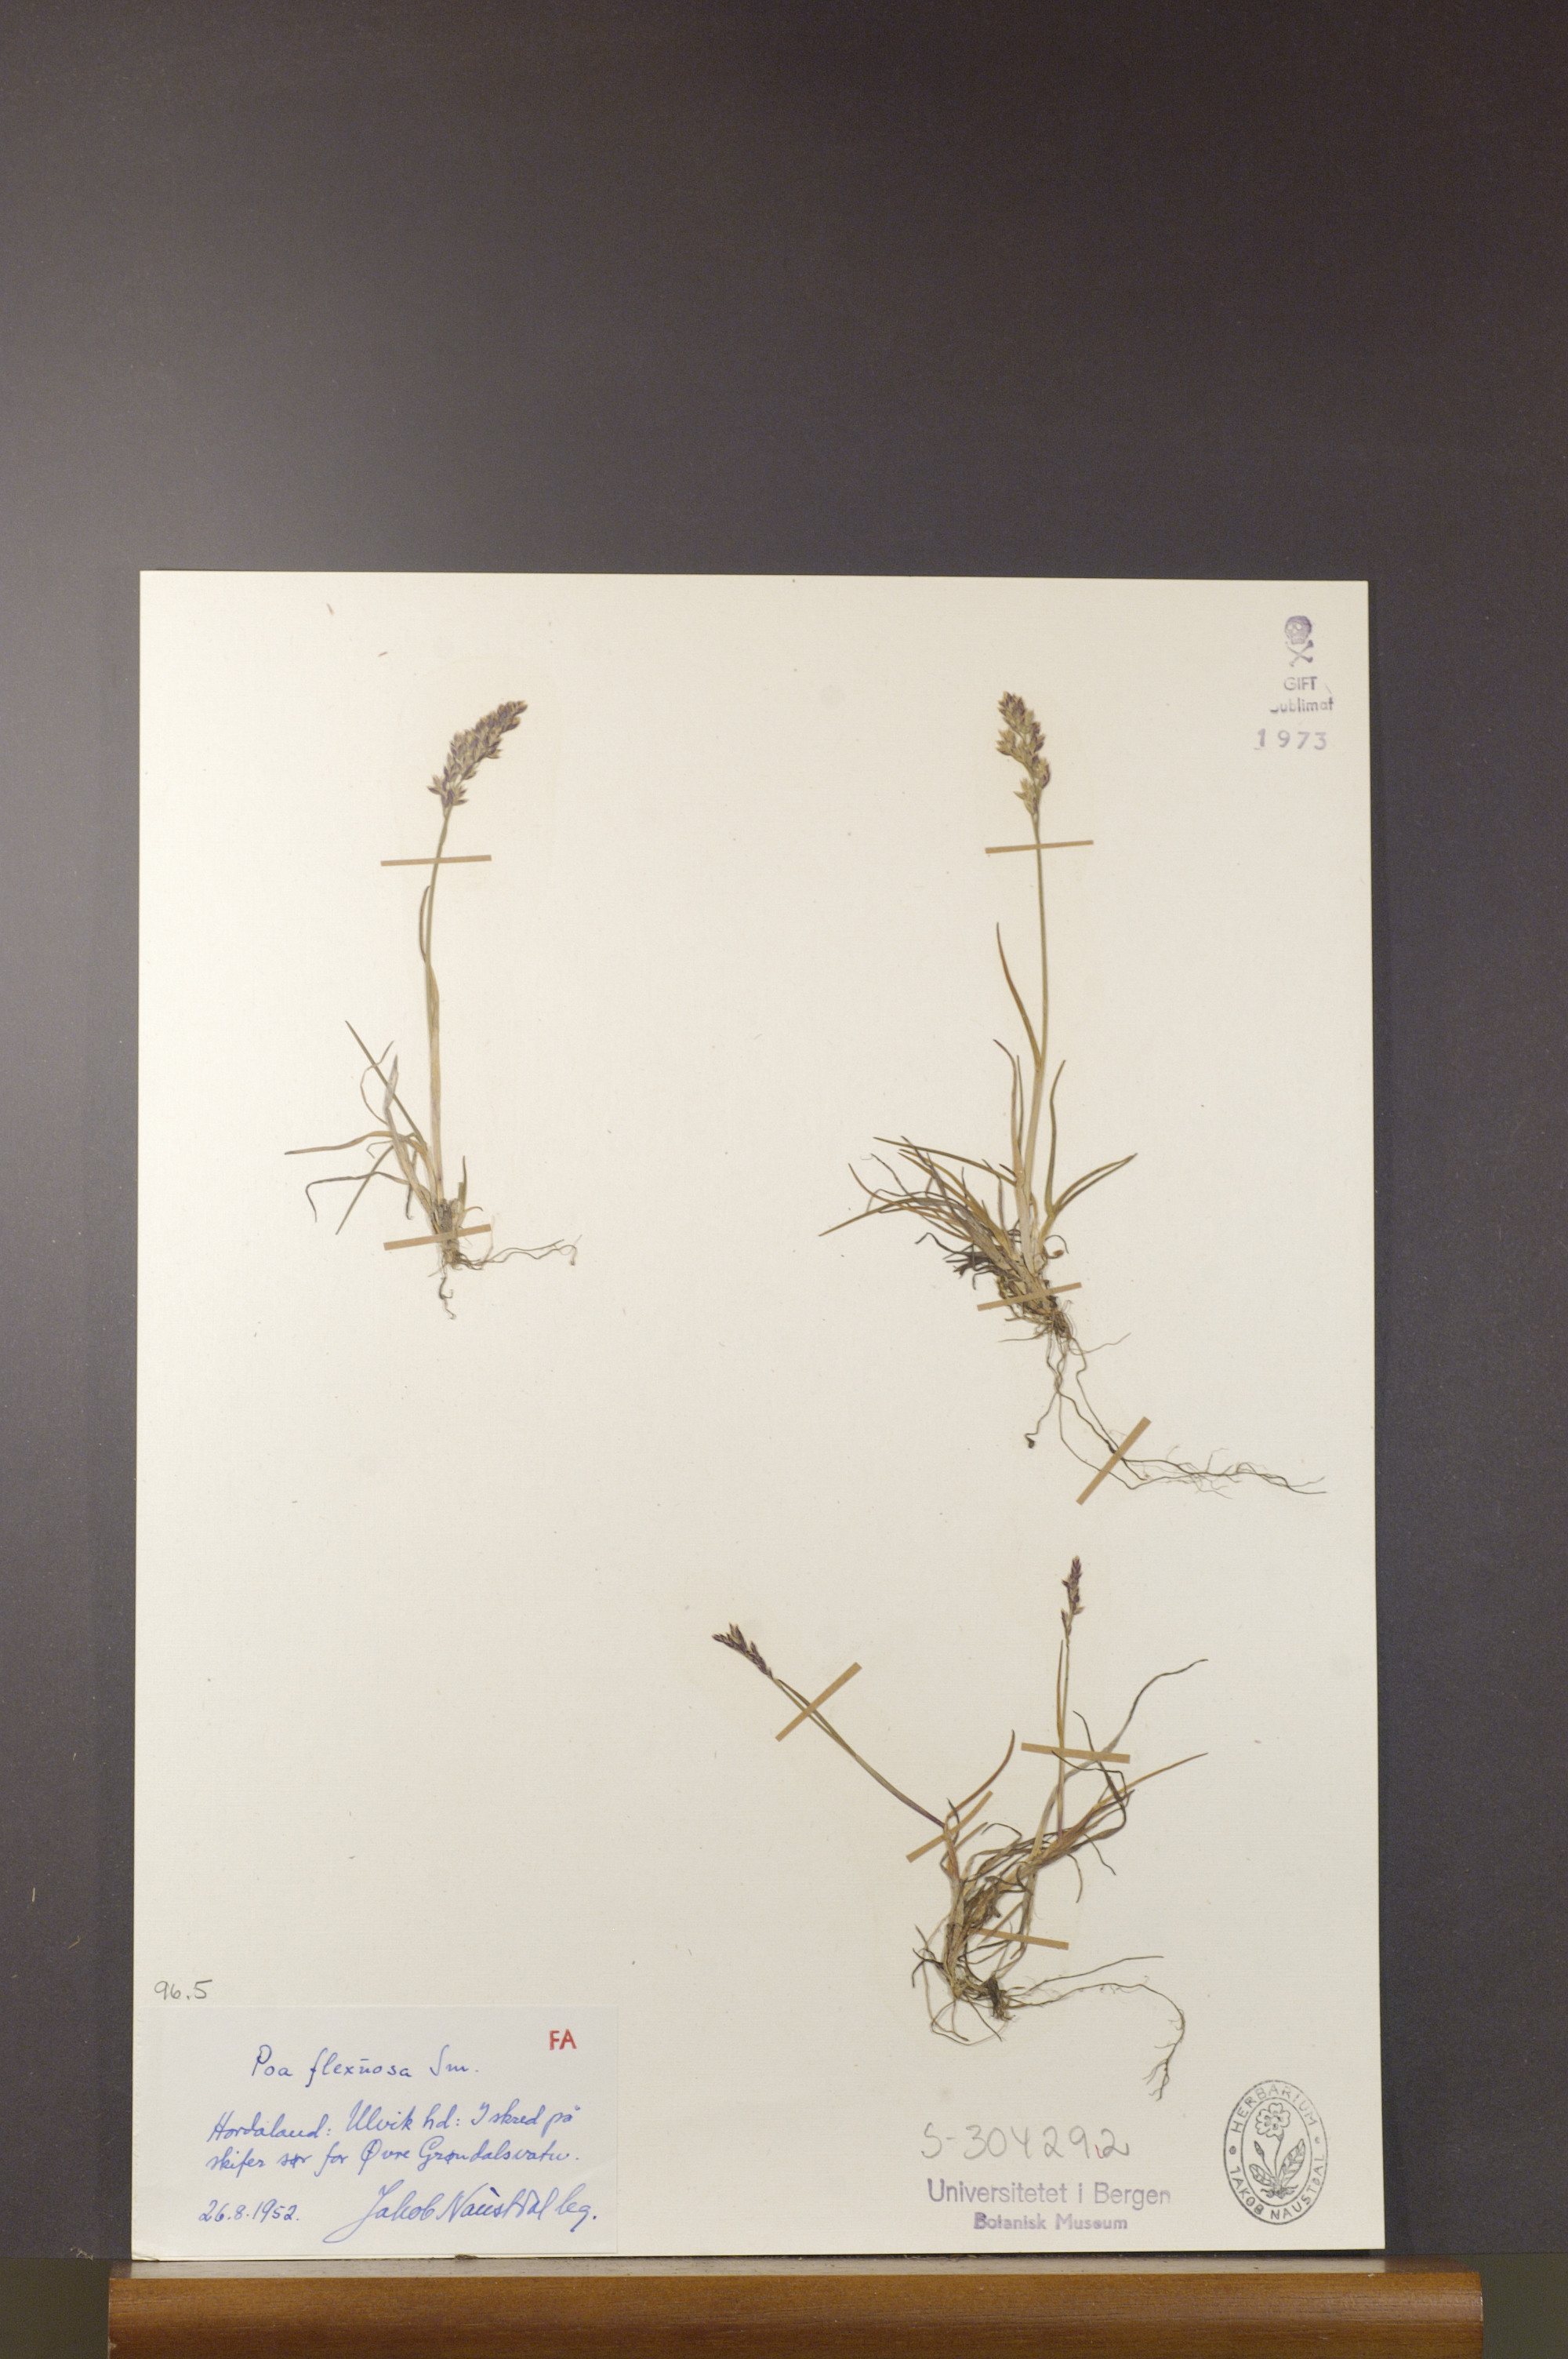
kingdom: Plantae
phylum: Tracheophyta
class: Liliopsida
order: Poales
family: Poaceae
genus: Poa
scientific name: Poa flexuosa
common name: Wavy meadow-grass
